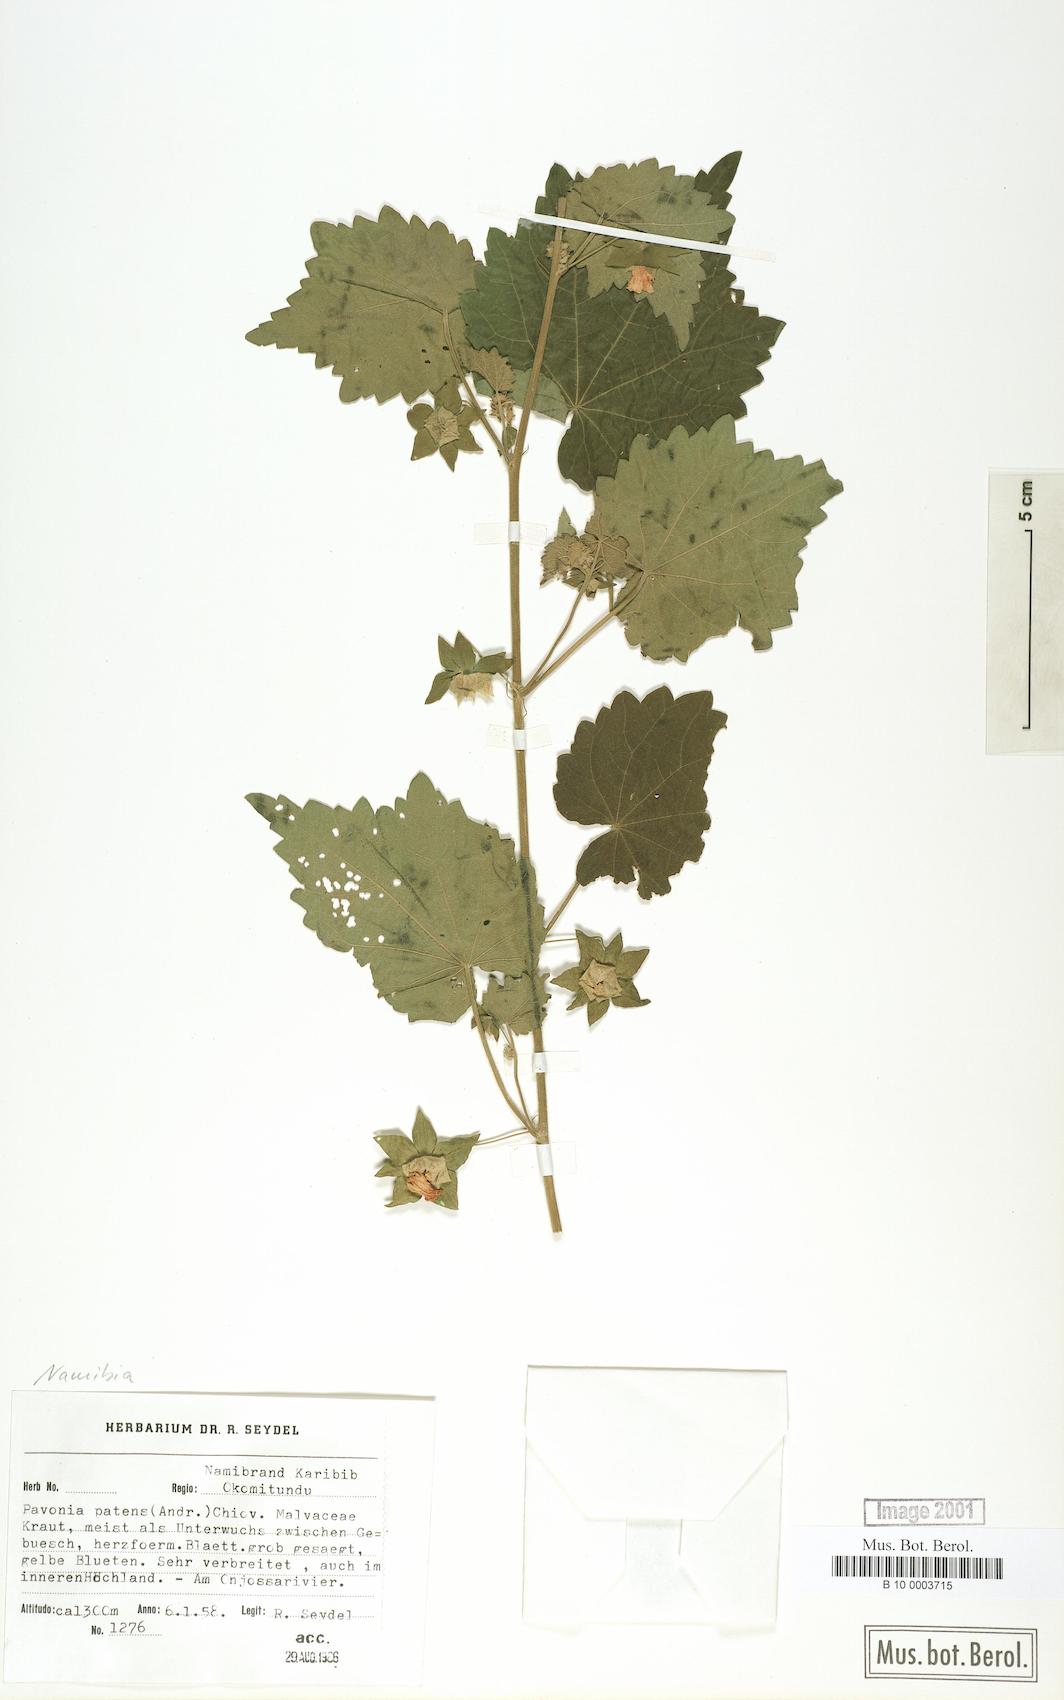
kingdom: Plantae
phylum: Tracheophyta
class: Magnoliopsida
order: Malvales
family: Malvaceae
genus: Abutilon
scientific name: Abutilon mauritianum
